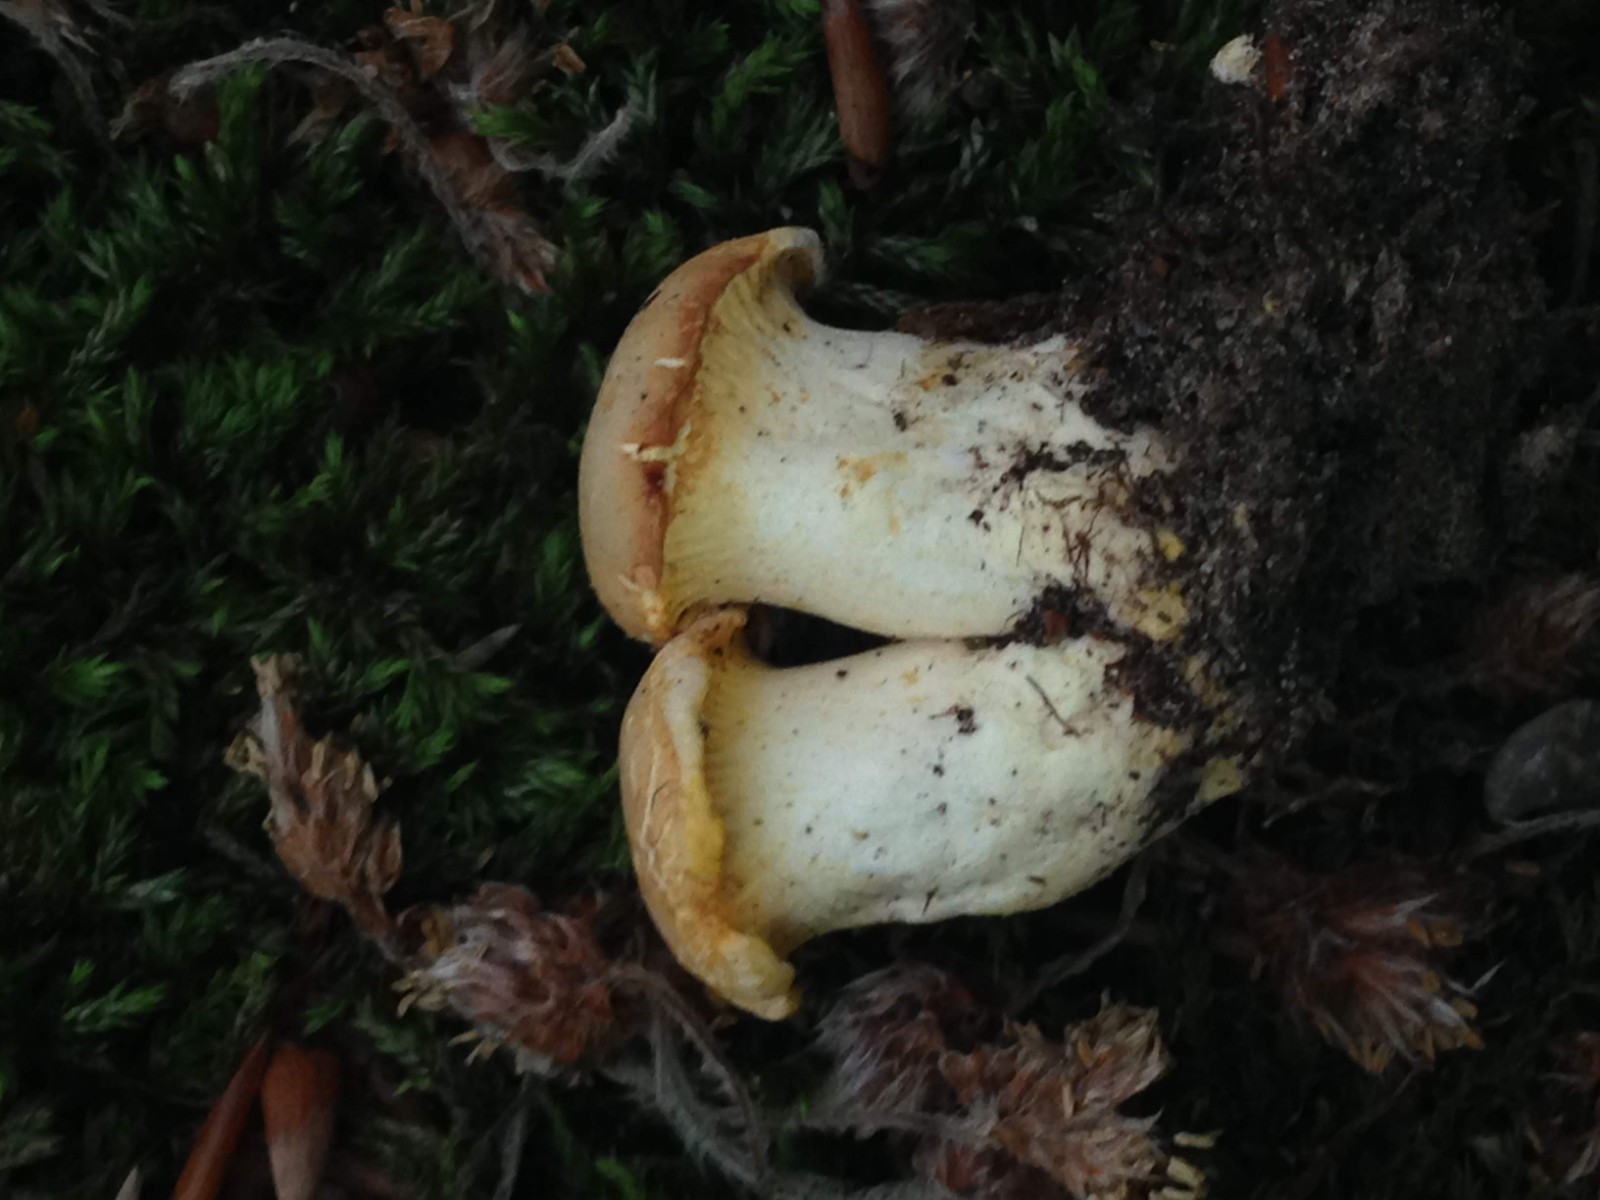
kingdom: Fungi
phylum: Basidiomycota
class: Agaricomycetes
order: Cantharellales
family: Hydnaceae
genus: Cantharellus
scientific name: Cantharellus pallens
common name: bleg kantarel
